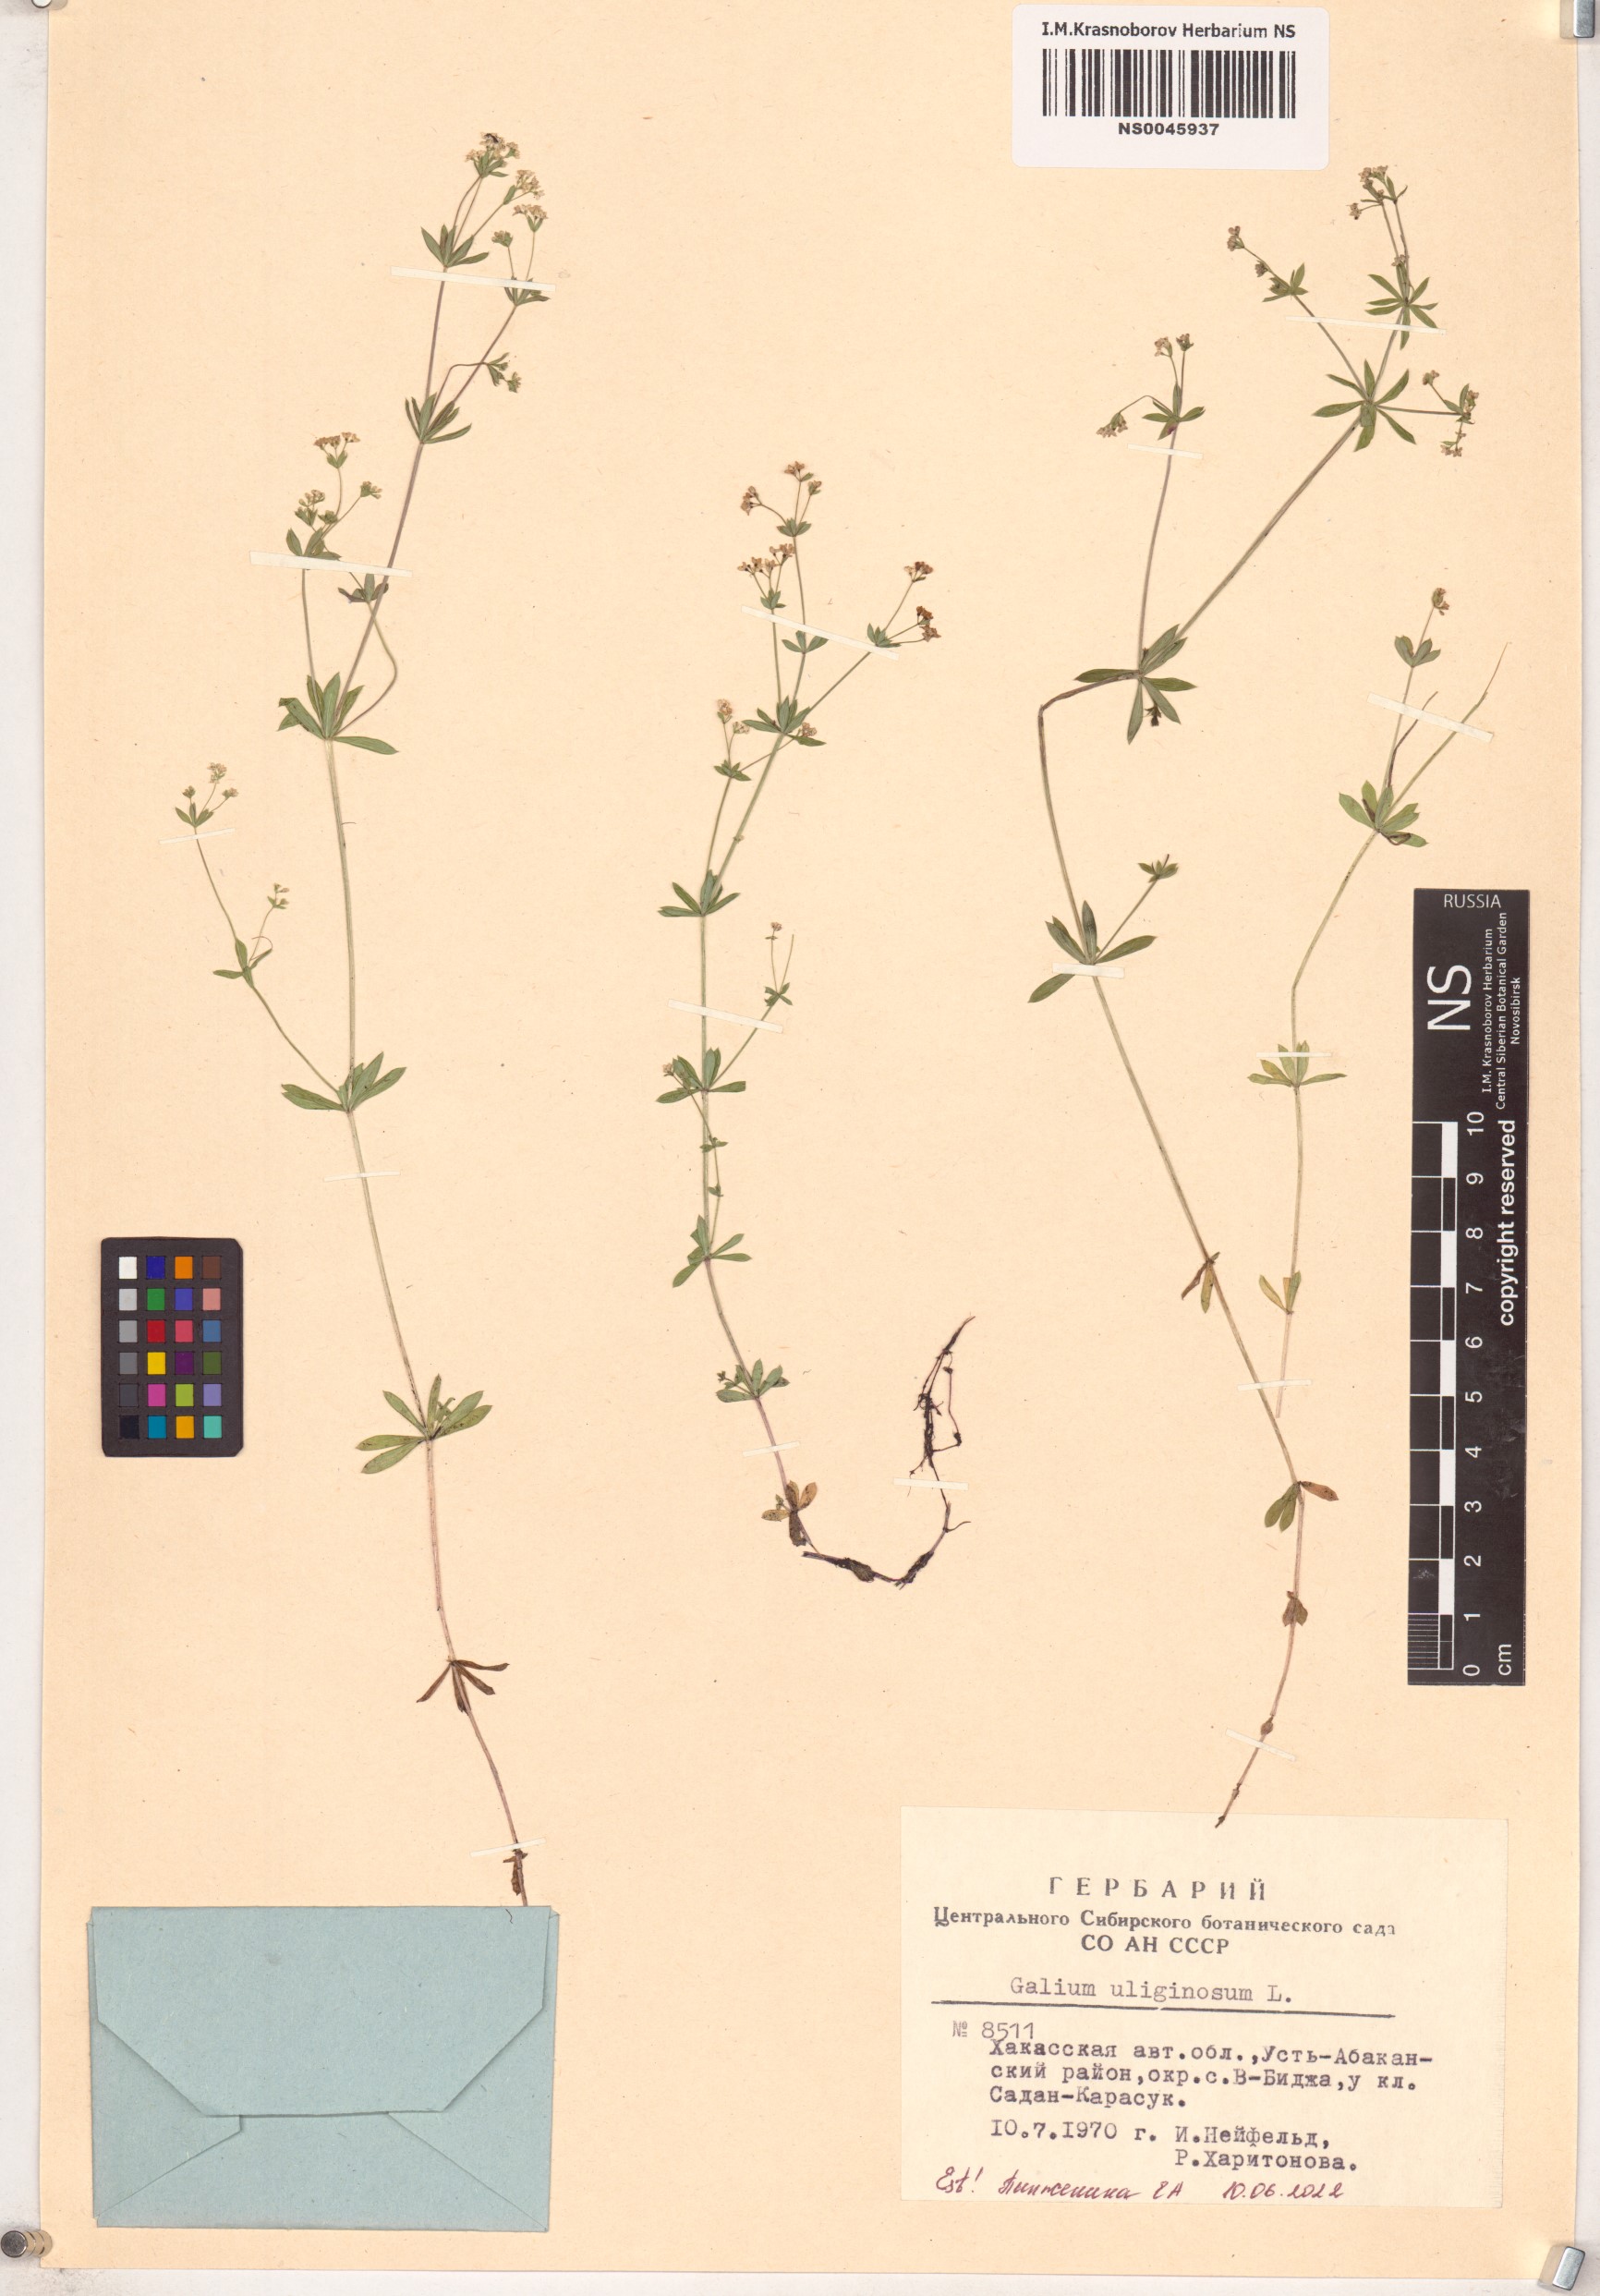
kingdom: Plantae
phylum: Tracheophyta
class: Magnoliopsida
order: Gentianales
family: Rubiaceae
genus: Galium
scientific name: Galium uliginosum
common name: Fen bedstraw
